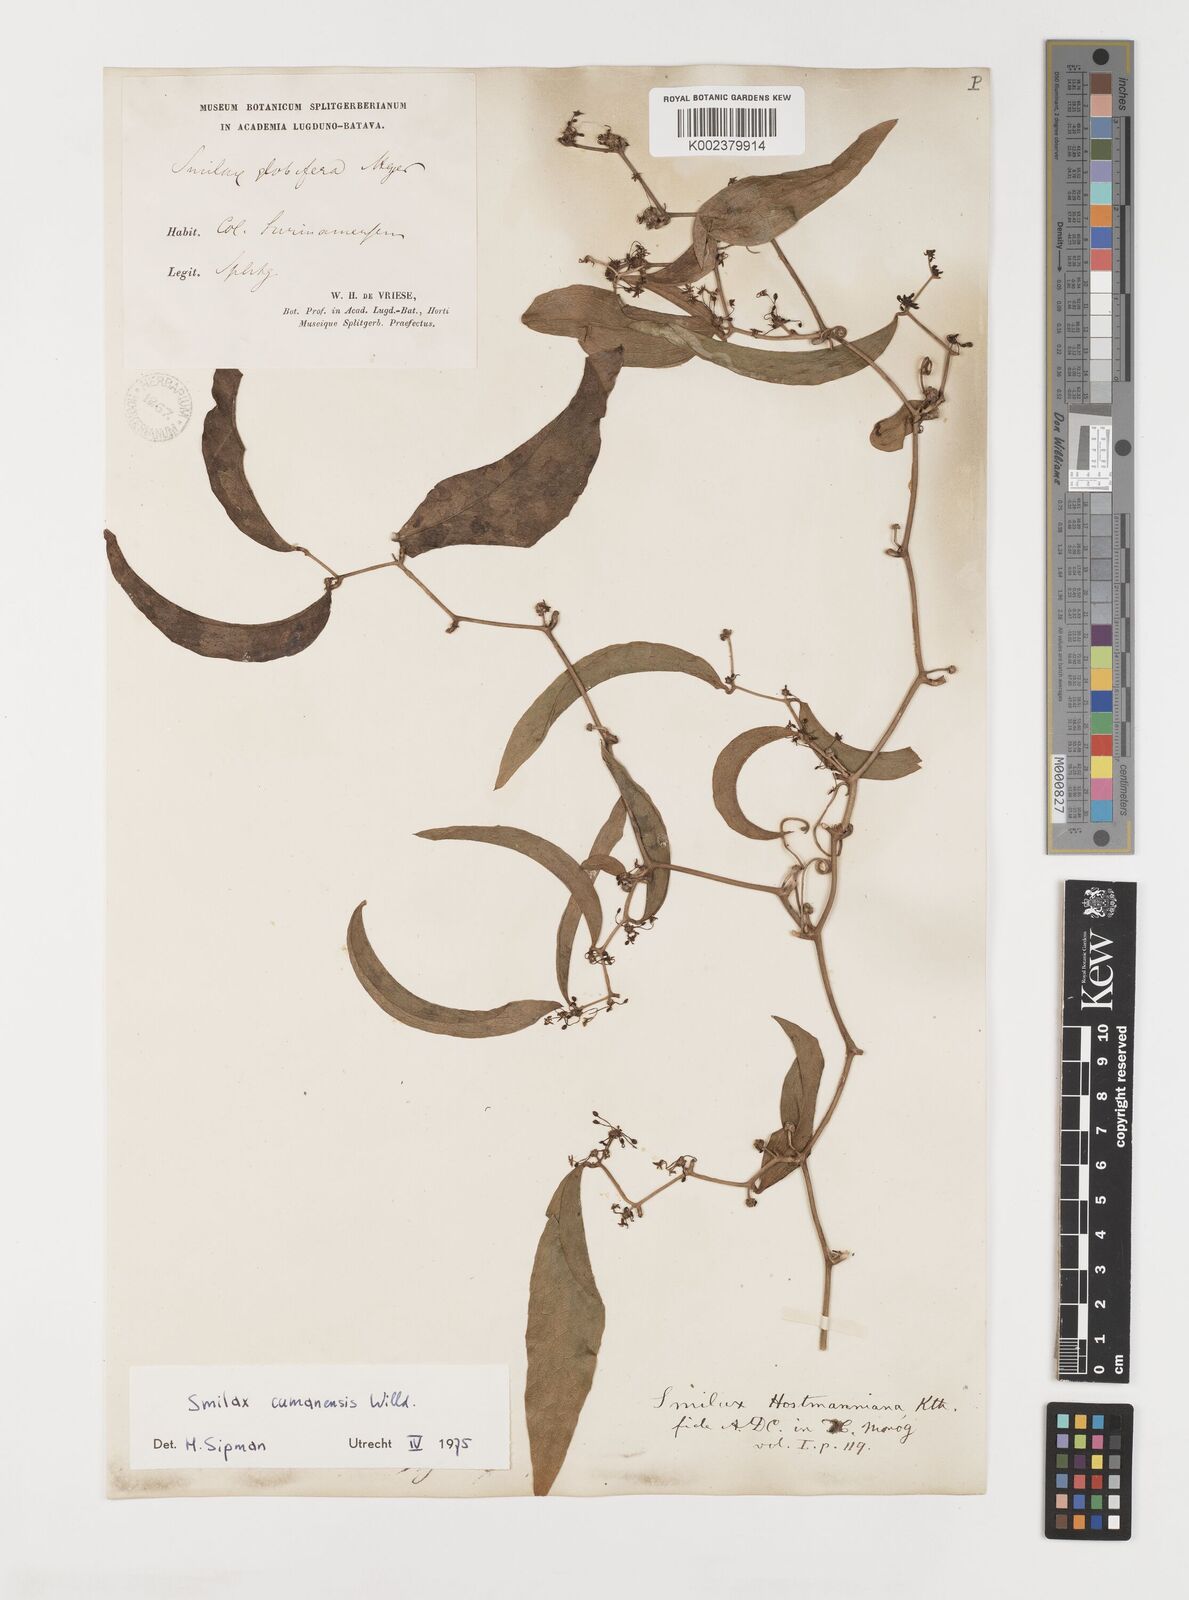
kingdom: Plantae
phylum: Tracheophyta
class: Liliopsida
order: Liliales
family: Smilacaceae
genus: Smilax
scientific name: Smilax oblongata
